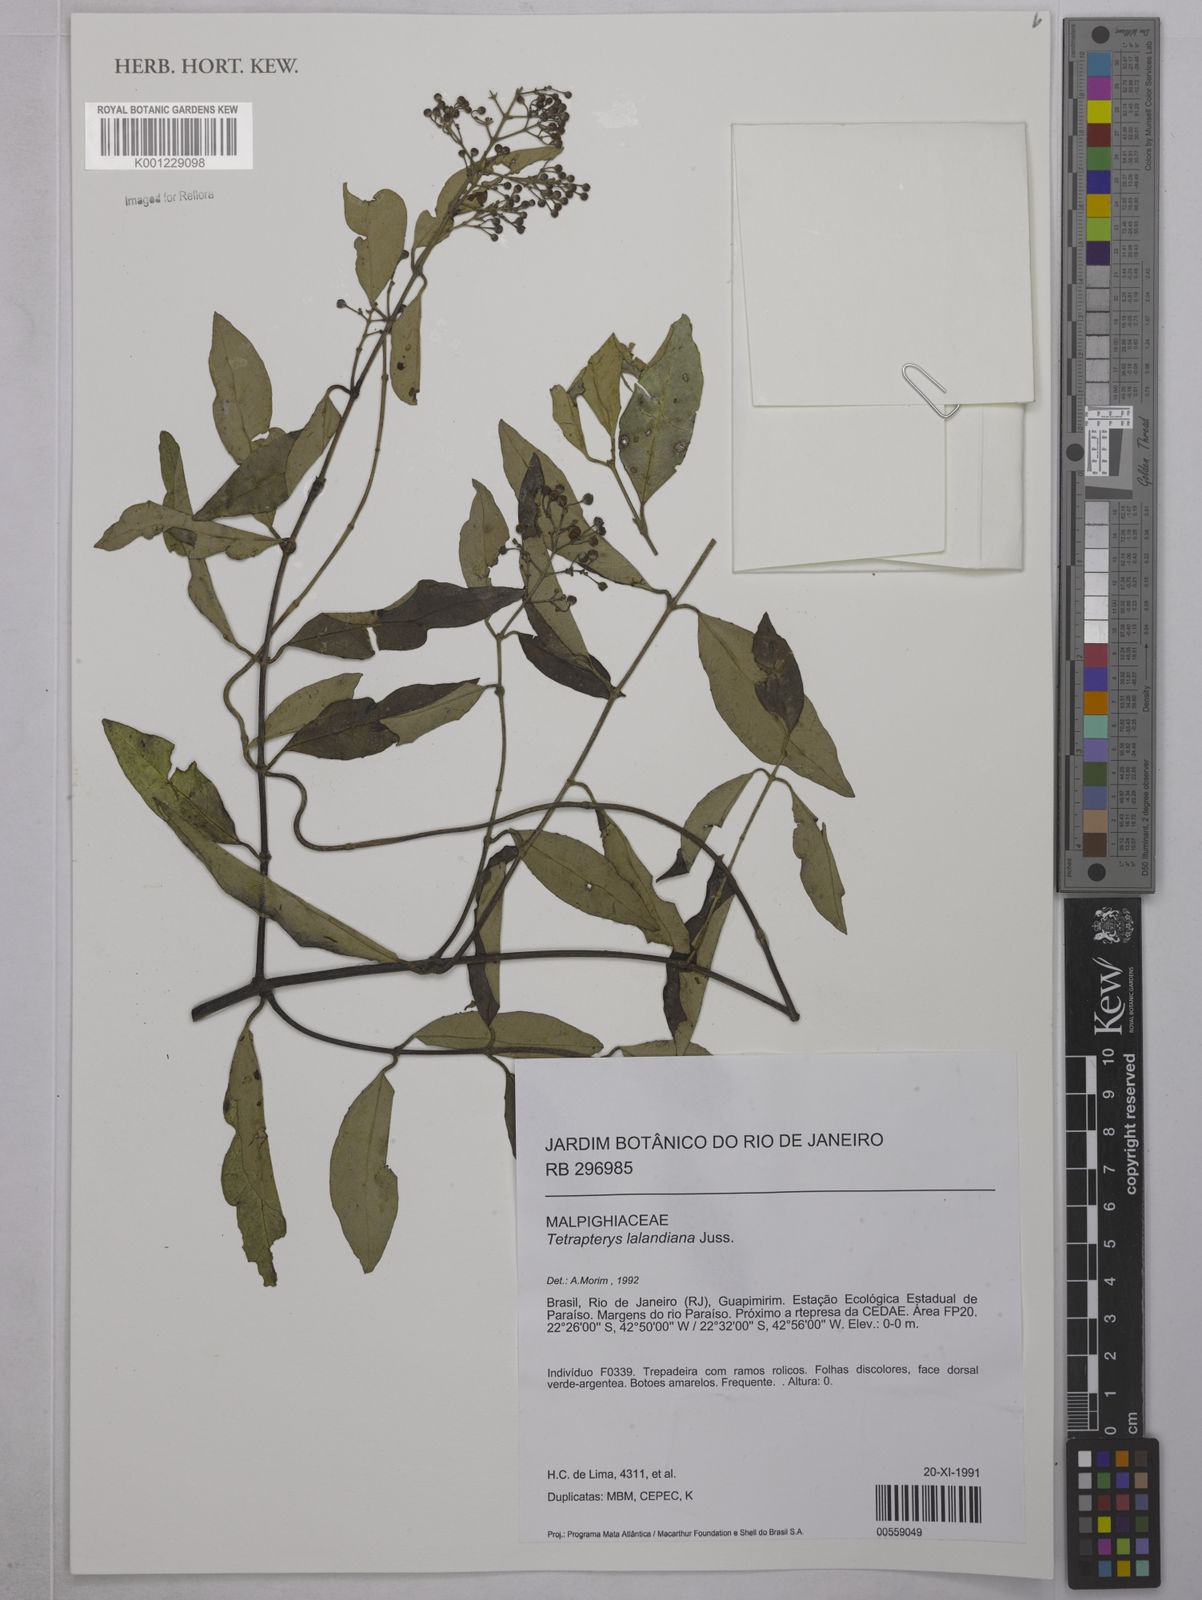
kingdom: Plantae
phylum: Tracheophyta
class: Magnoliopsida
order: Malpighiales
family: Malpighiaceae
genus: Niedenzuella
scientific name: Niedenzuella poeppigiana
